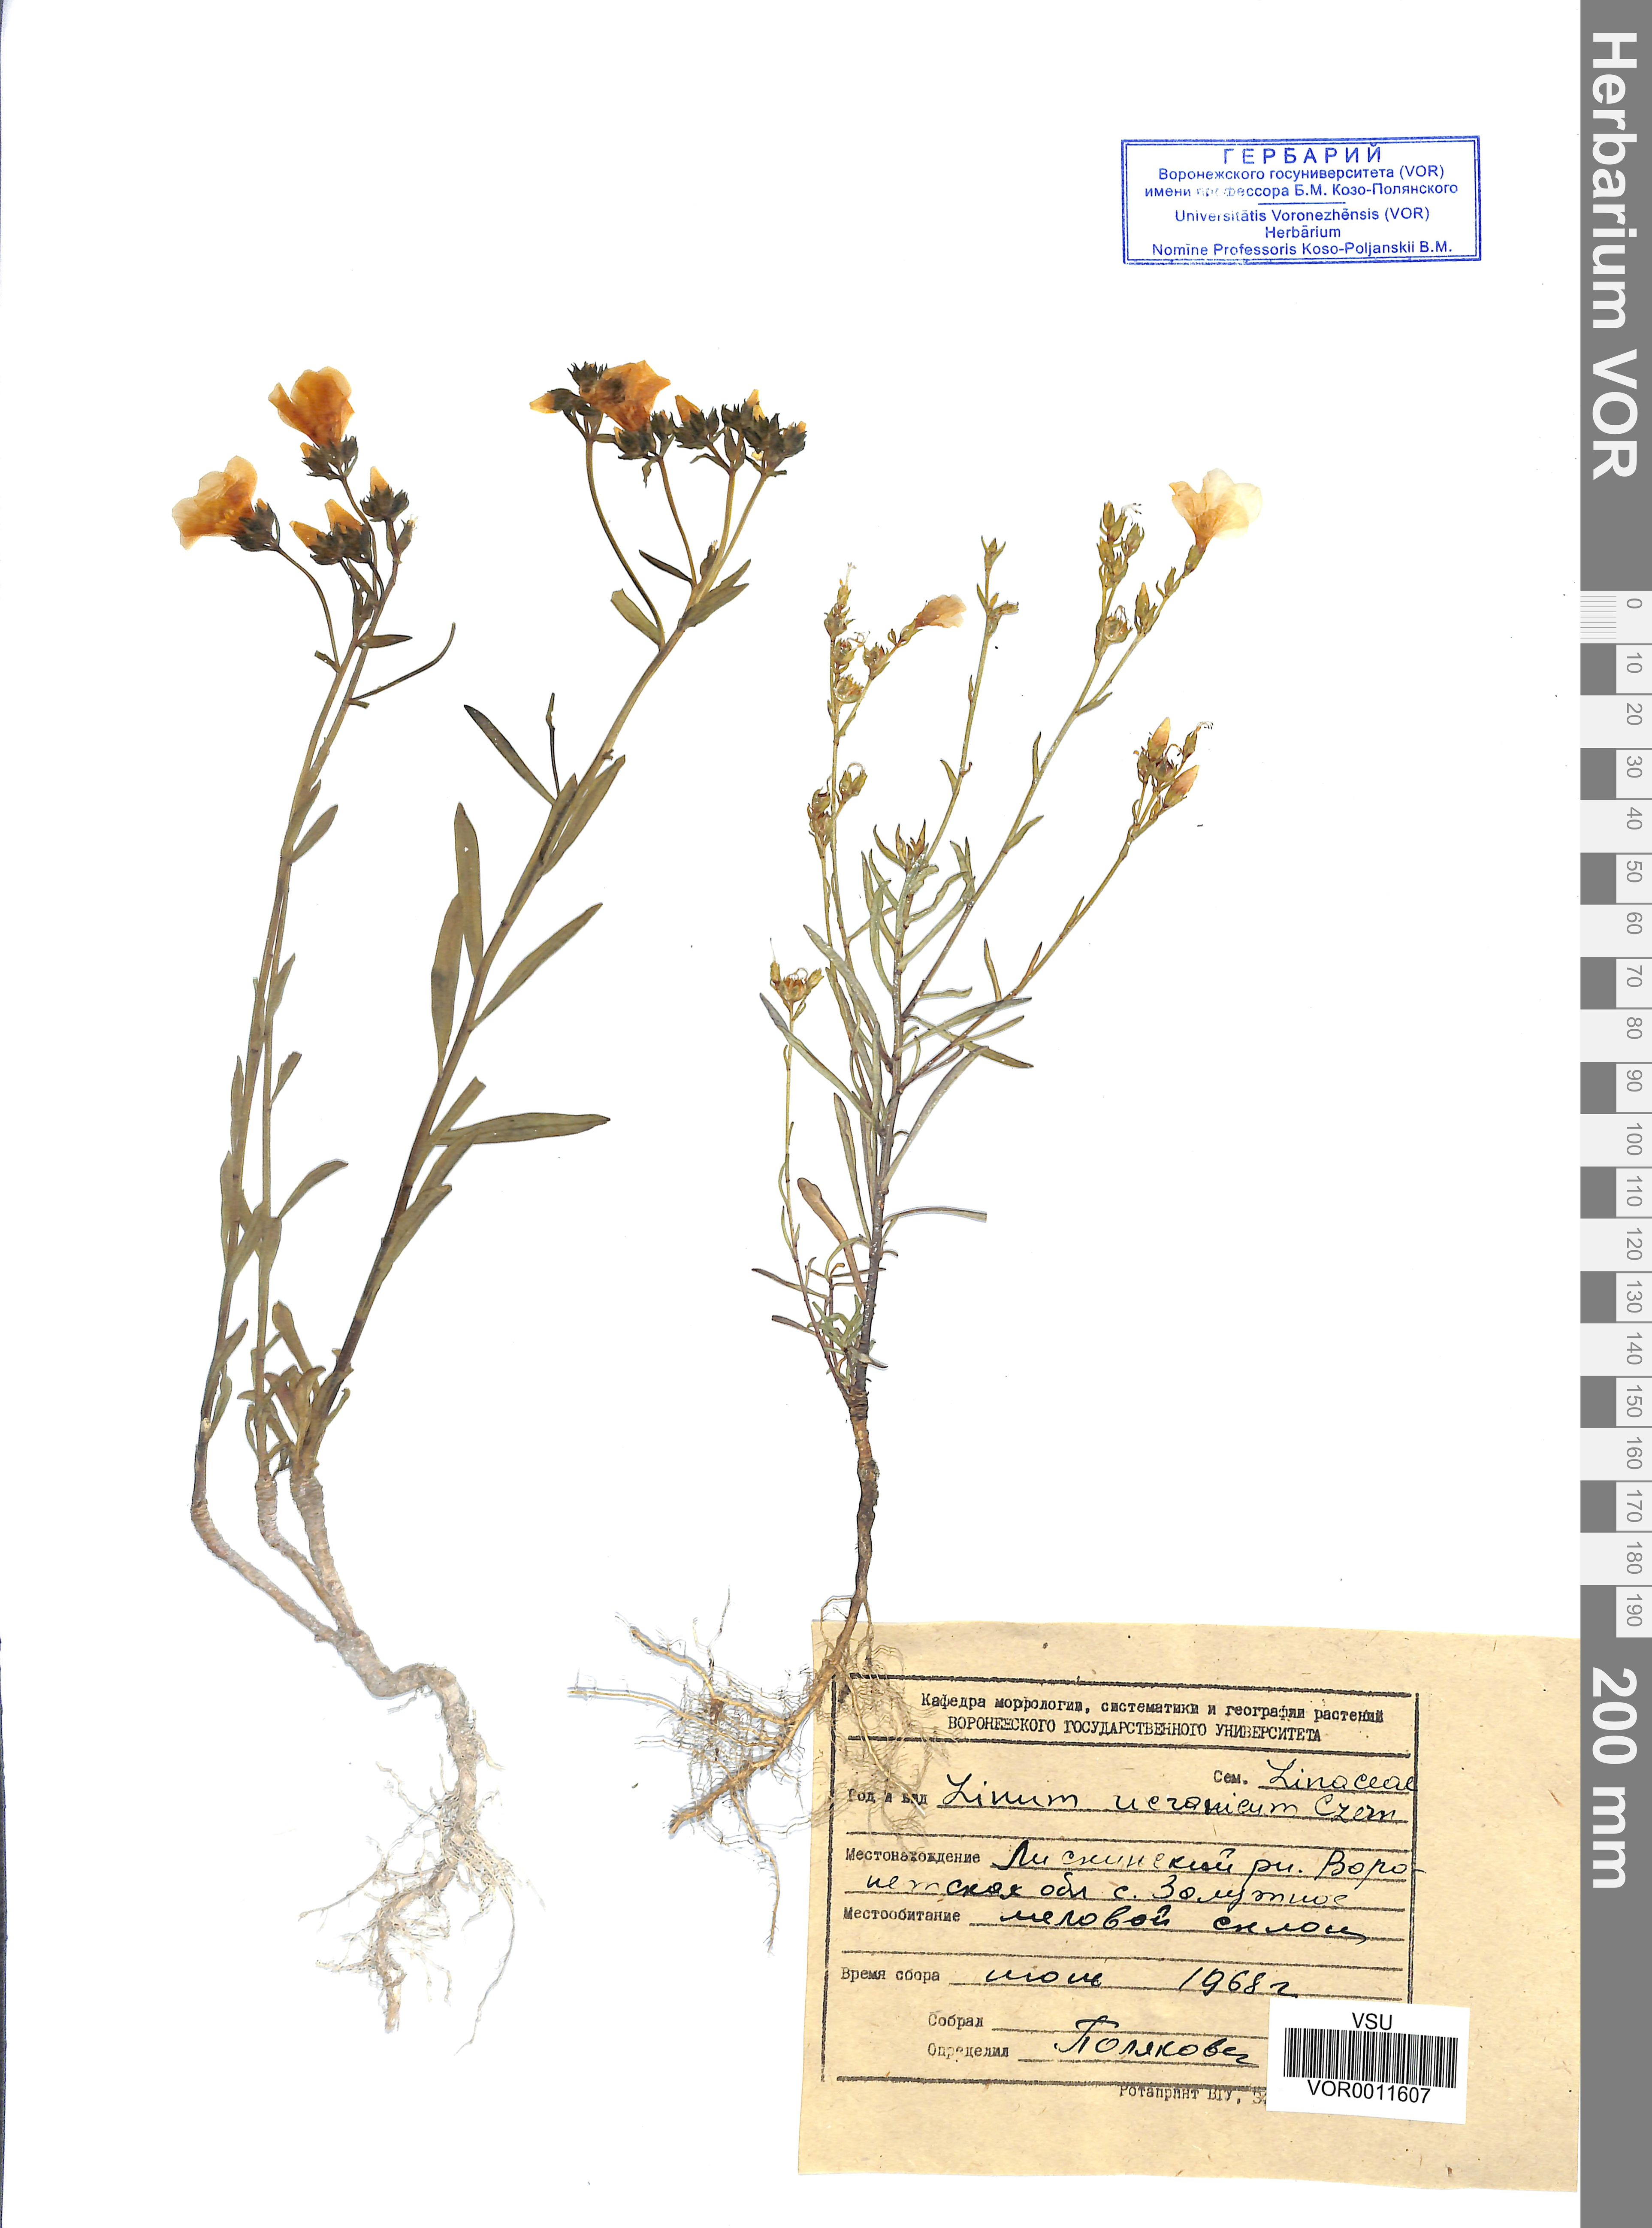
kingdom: Plantae
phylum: Tracheophyta
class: Magnoliopsida
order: Malpighiales
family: Linaceae
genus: Linum
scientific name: Linum ucranicum
